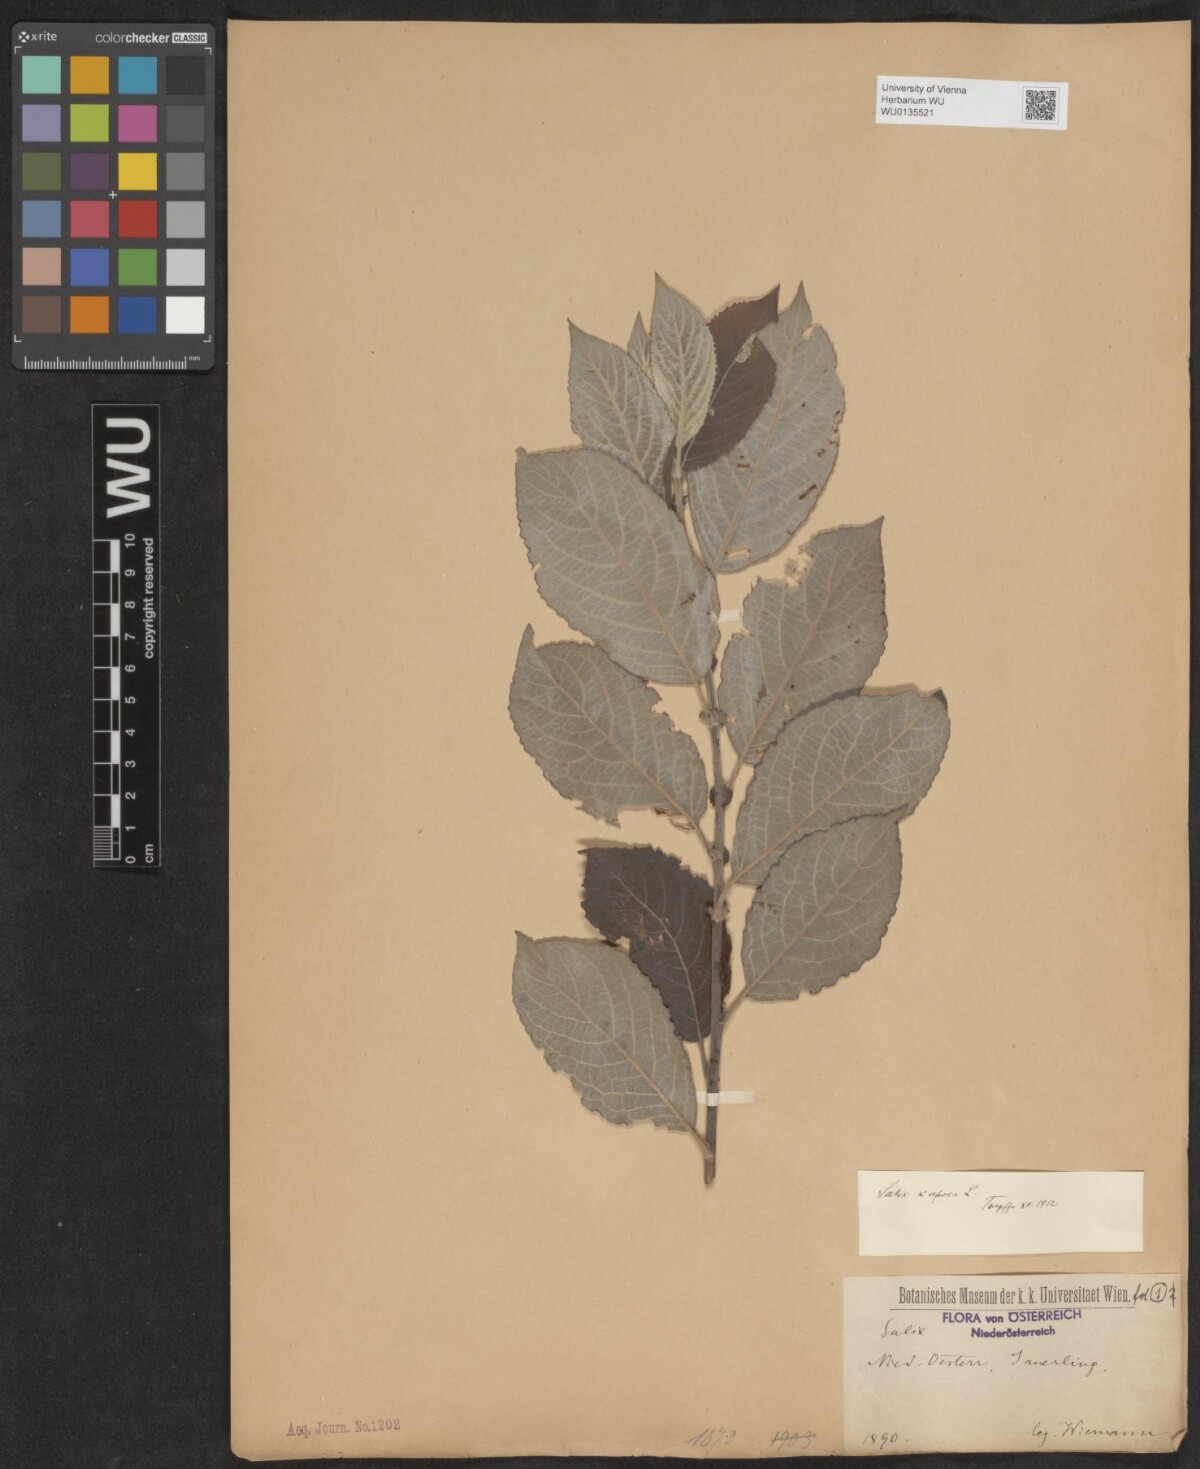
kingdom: Plantae
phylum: Tracheophyta
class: Magnoliopsida
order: Malpighiales
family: Salicaceae
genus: Salix
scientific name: Salix caprea
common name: Goat willow
